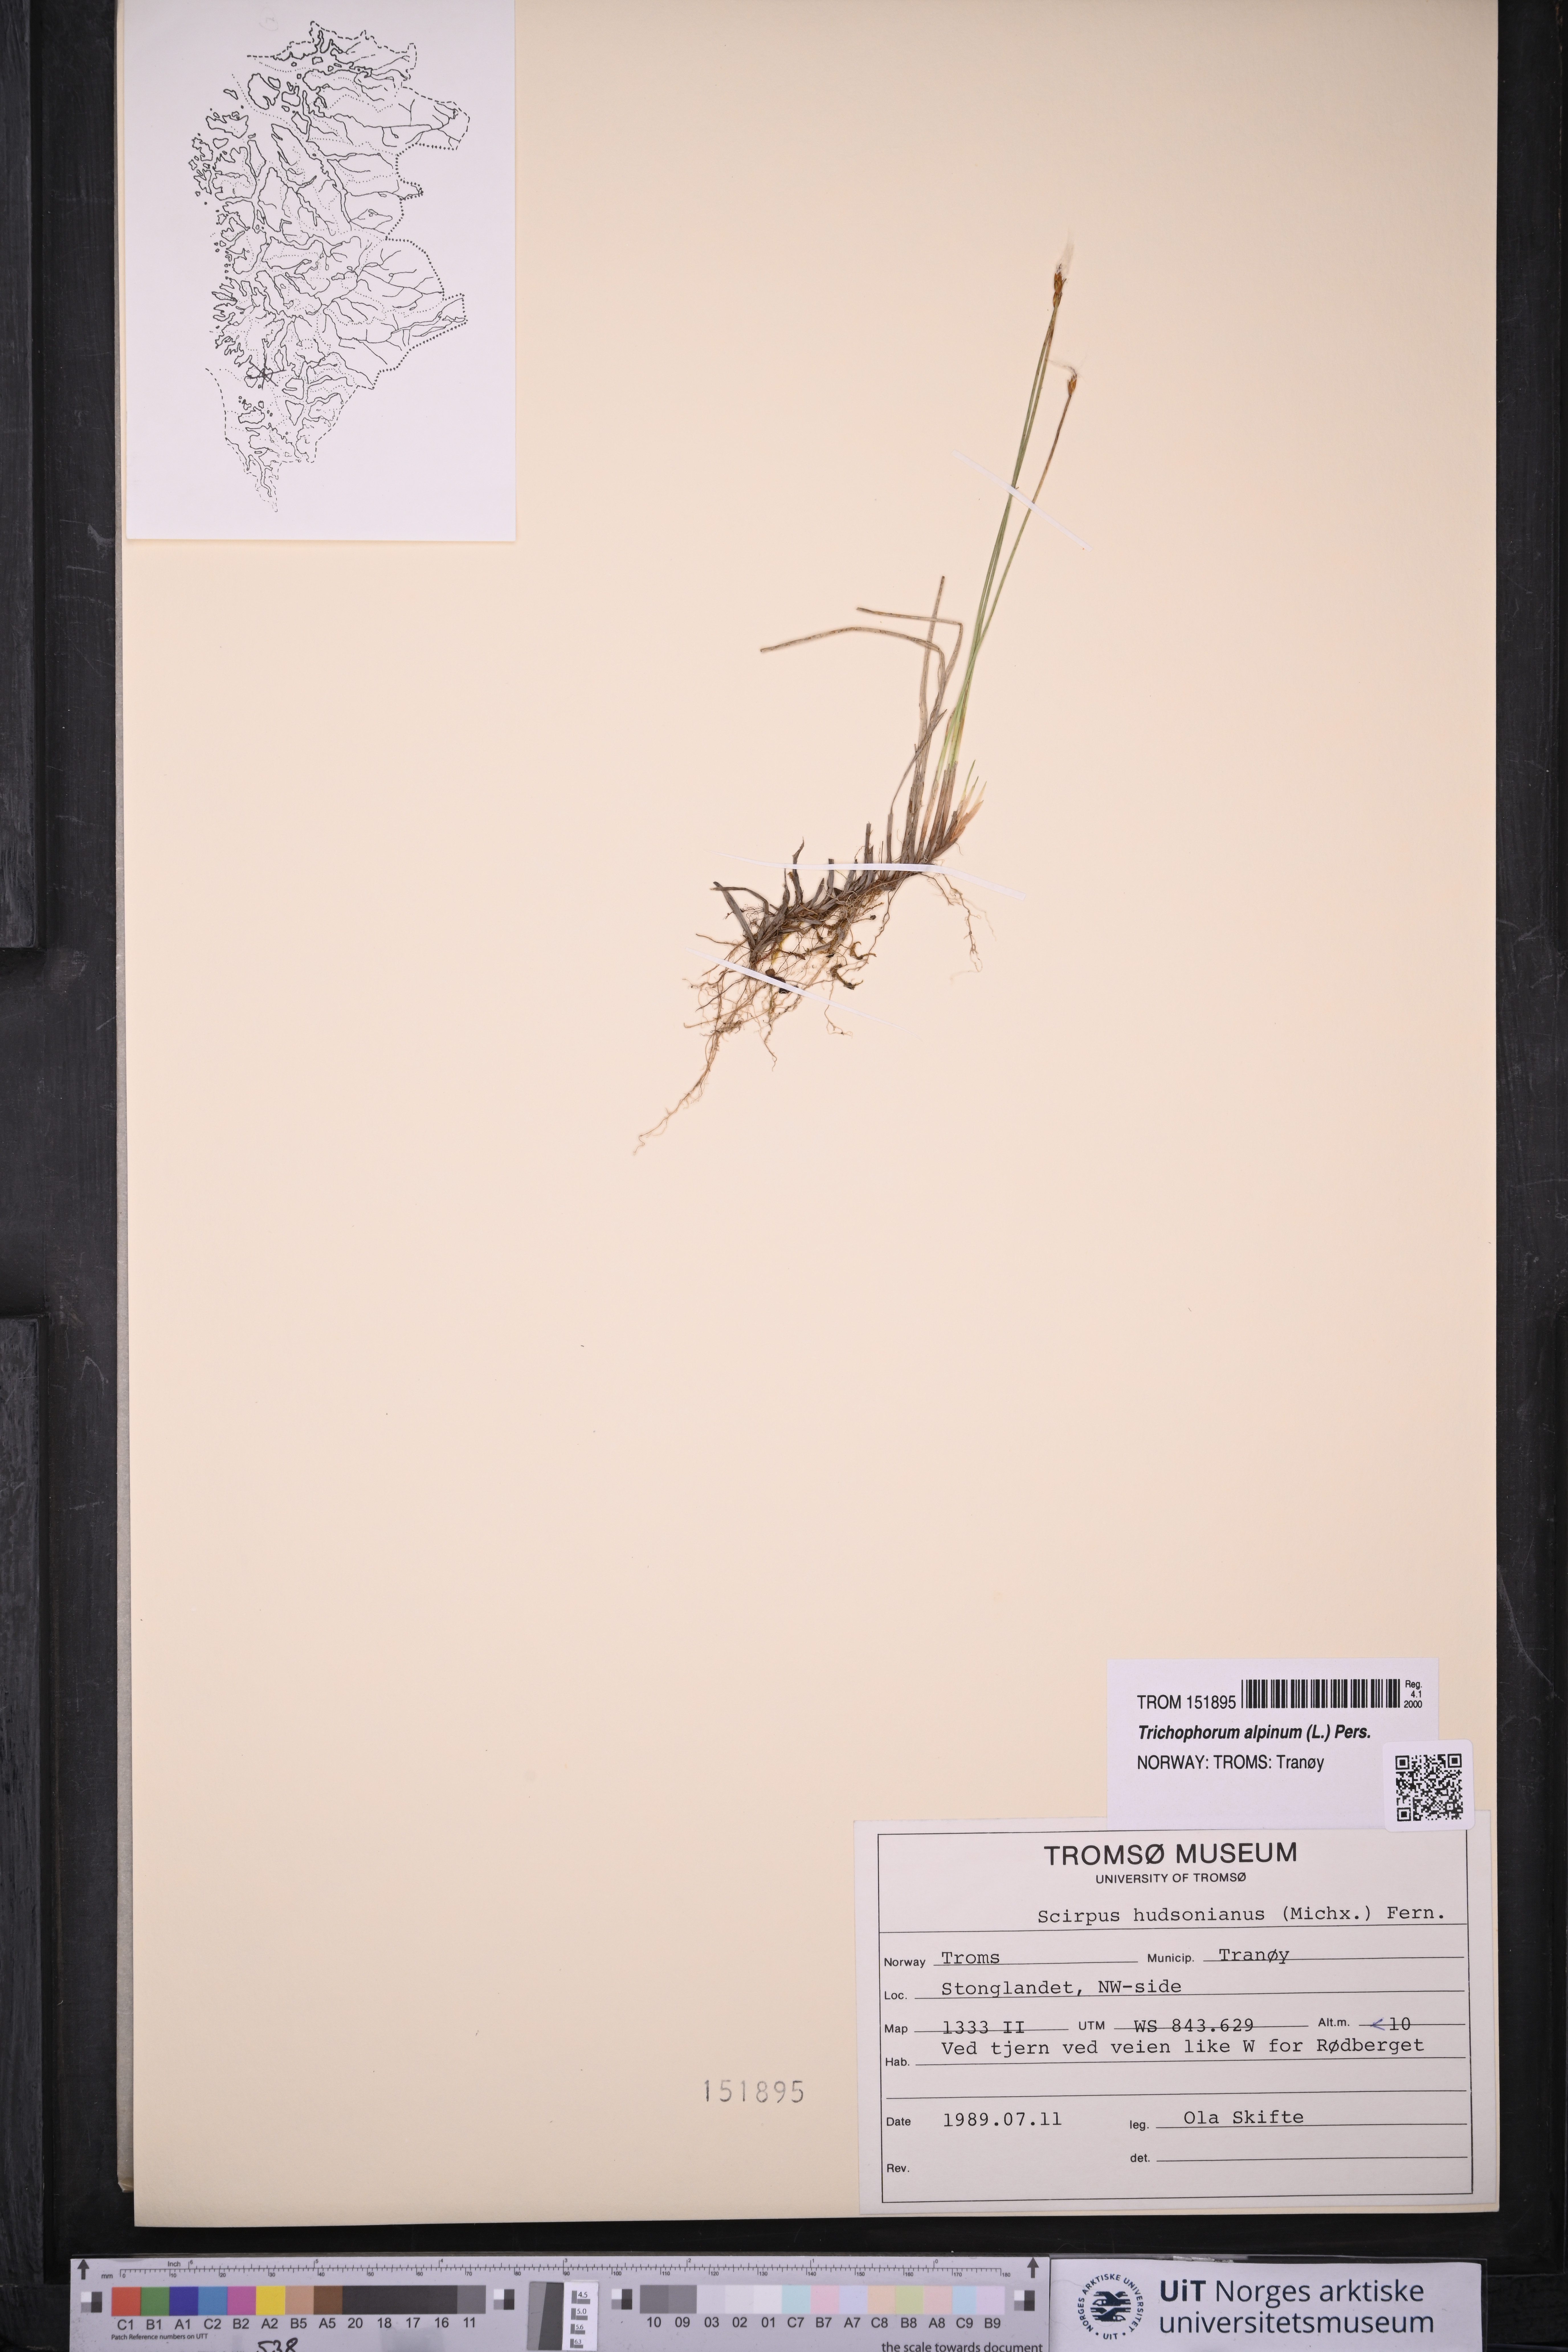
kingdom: Plantae
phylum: Tracheophyta
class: Liliopsida
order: Poales
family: Cyperaceae
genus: Trichophorum
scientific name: Trichophorum alpinum
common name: Alpine bulrush
